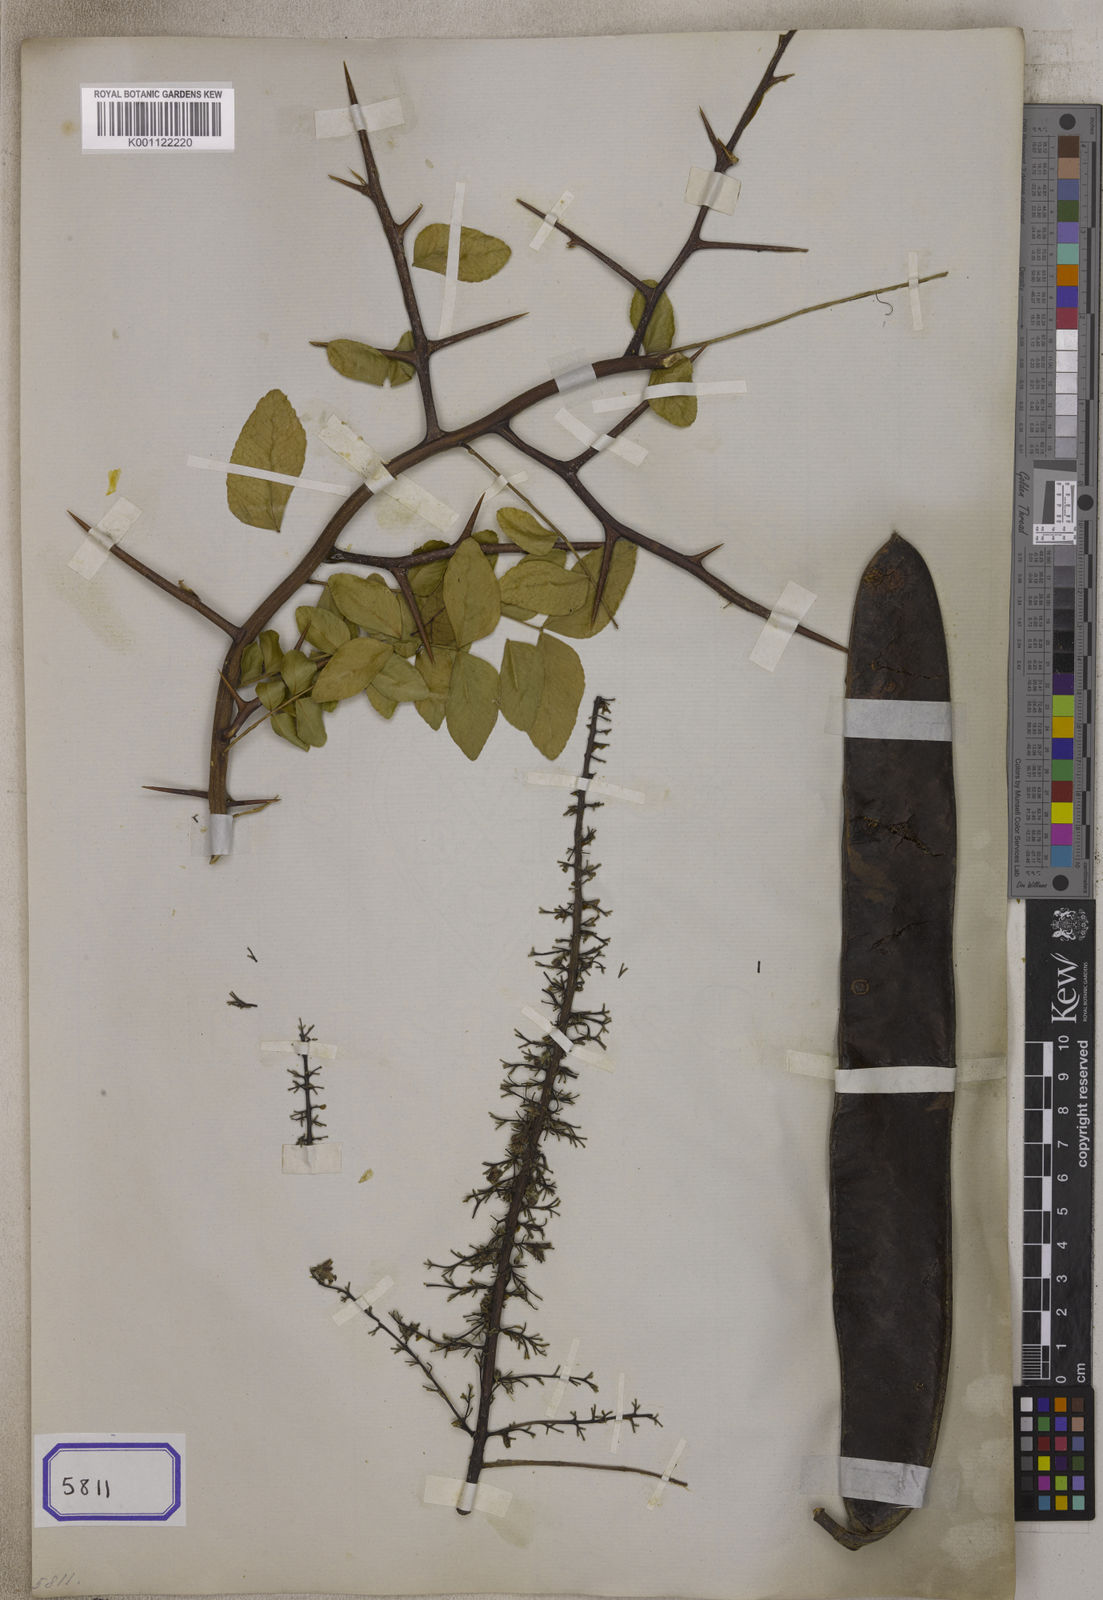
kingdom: Plantae
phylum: Tracheophyta
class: Magnoliopsida
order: Fabales
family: Fabaceae
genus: Gleditsia
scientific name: Gleditsia sinensis
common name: Chinese honey-locust
